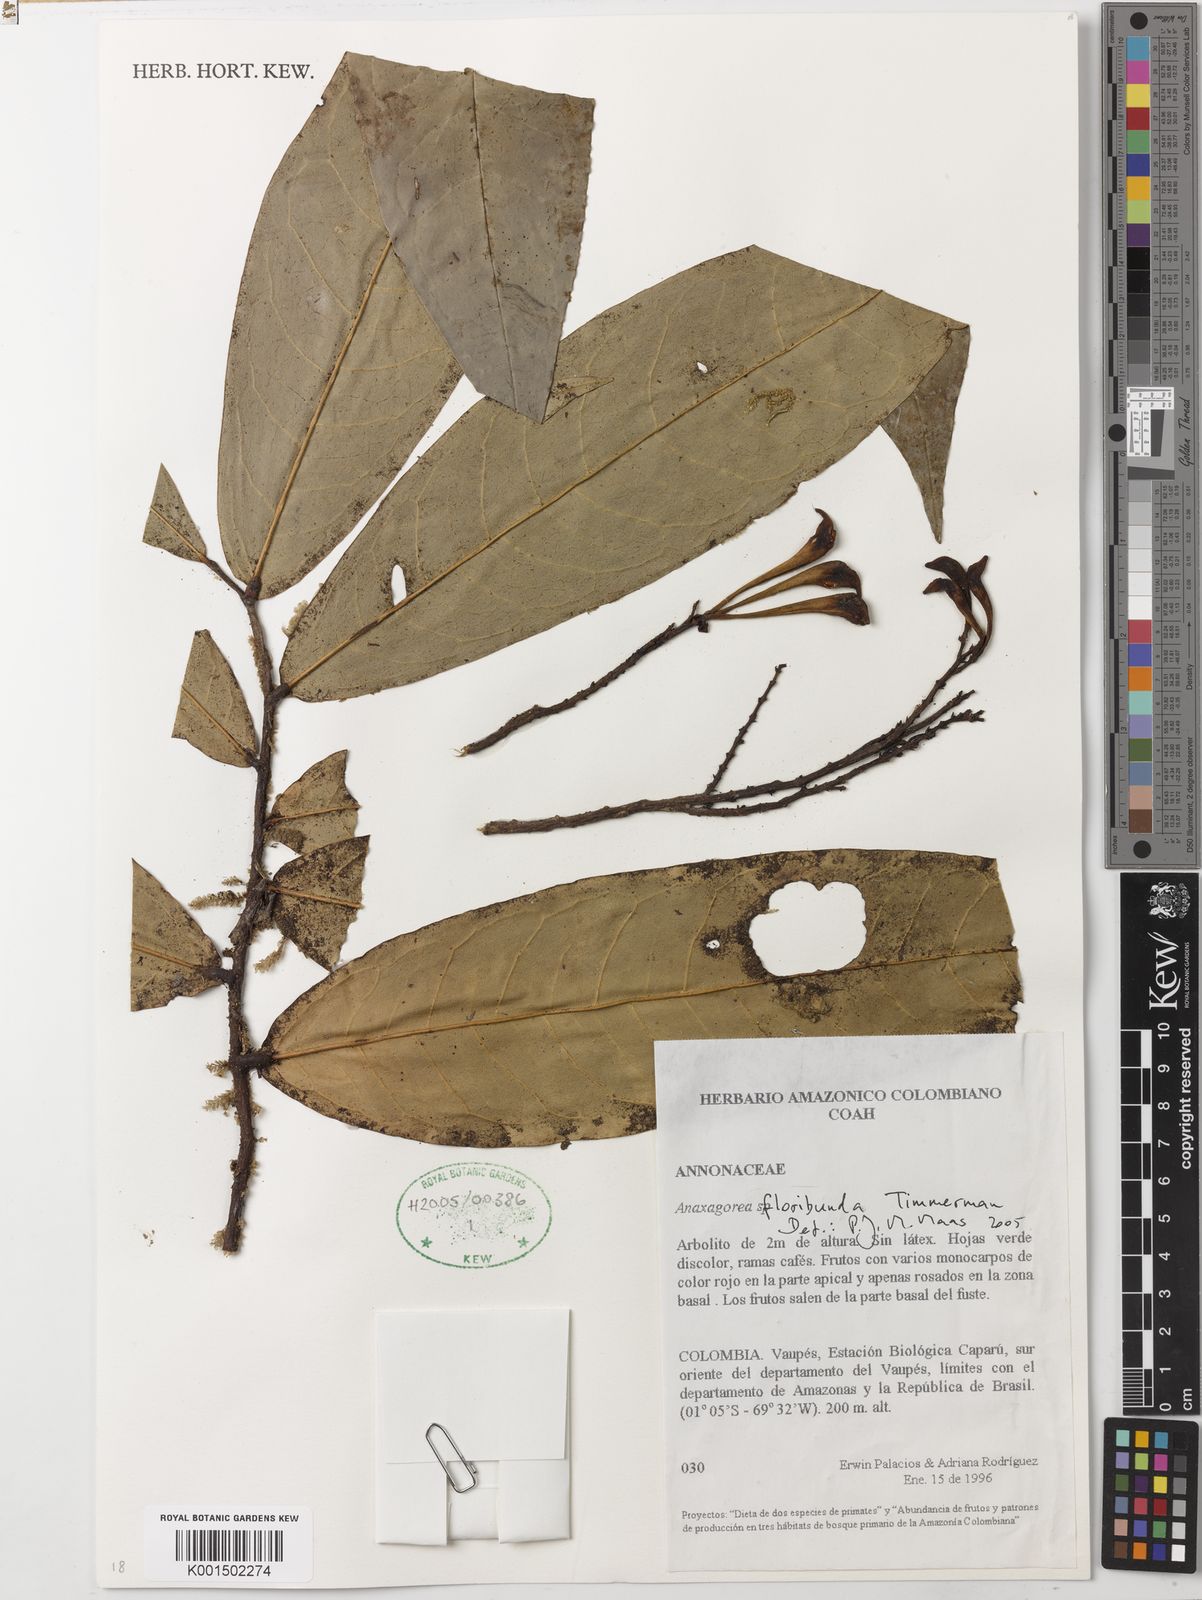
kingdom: Plantae
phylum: Tracheophyta
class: Magnoliopsida
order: Magnoliales
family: Annonaceae
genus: Anaxagorea
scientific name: Anaxagorea floribunda
